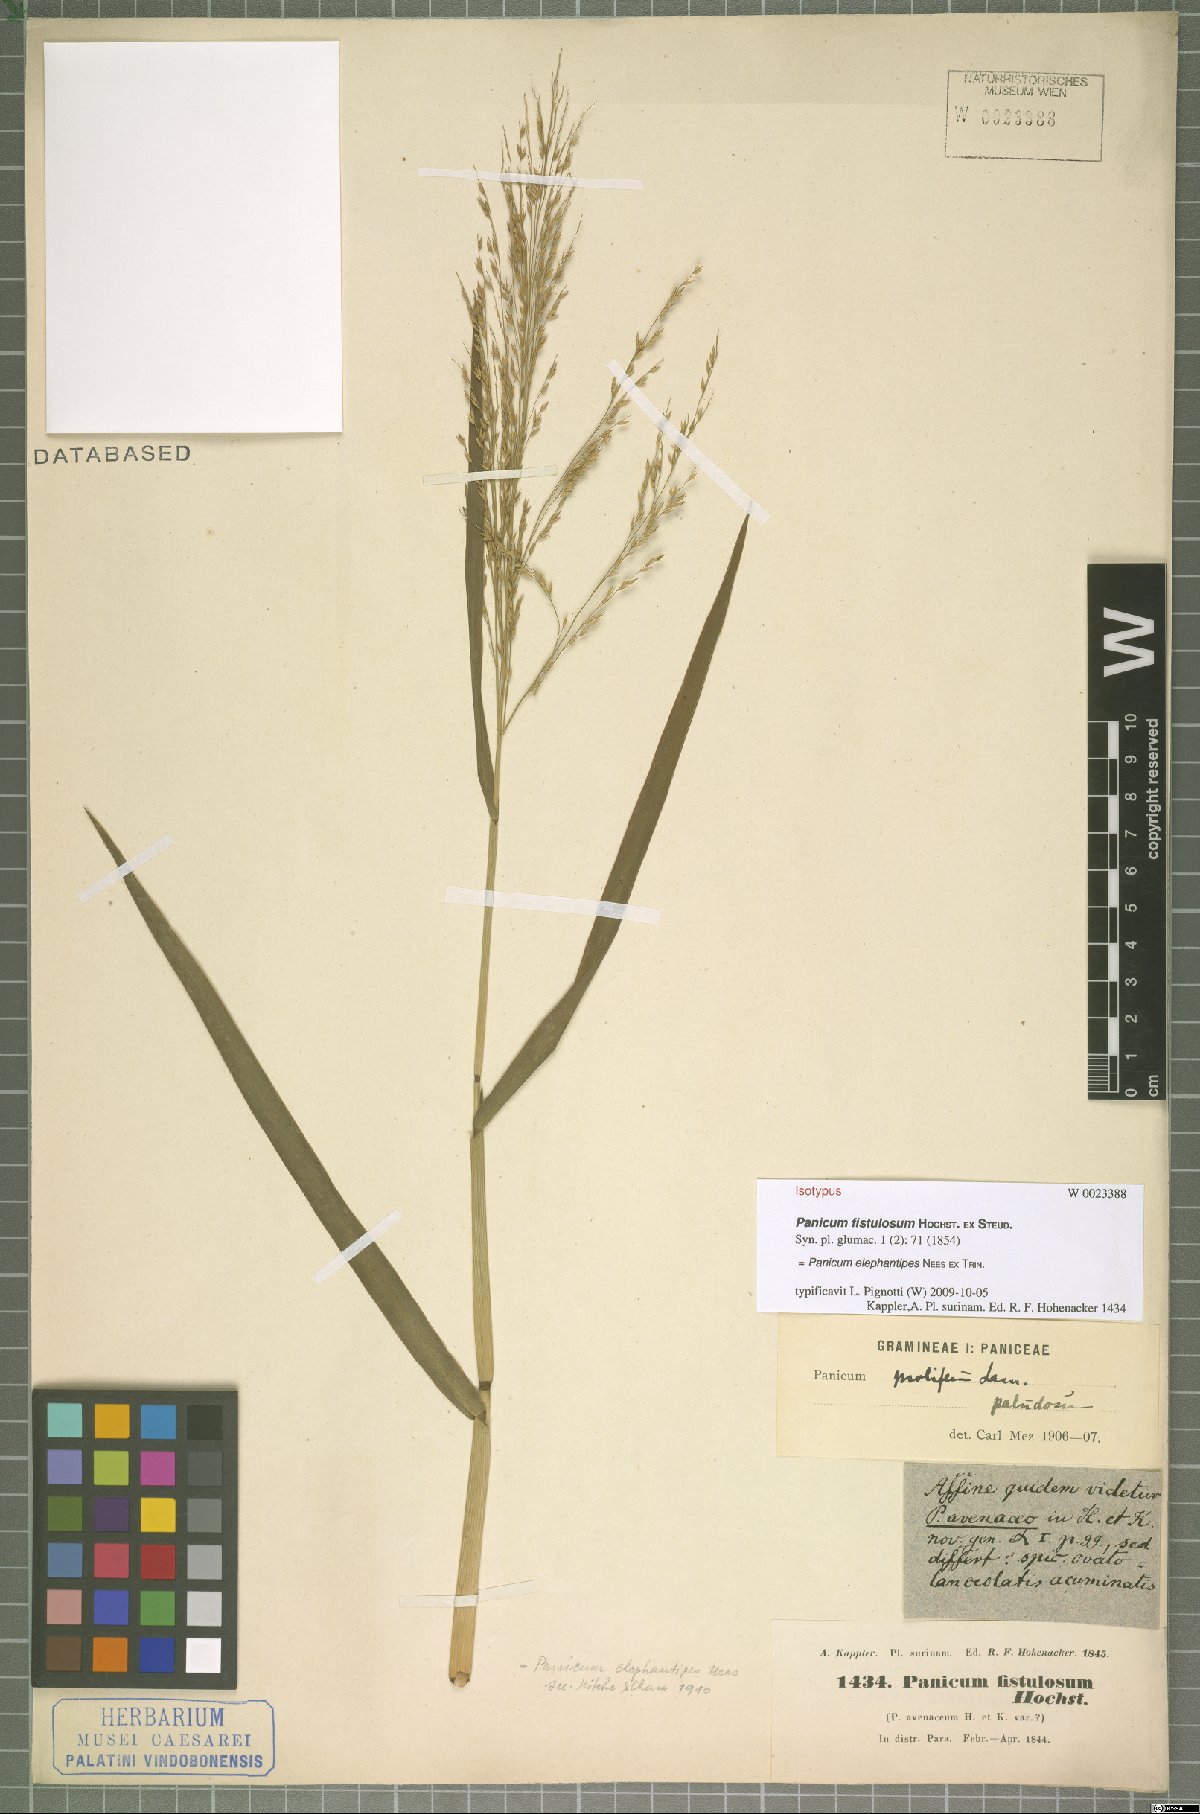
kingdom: Plantae
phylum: Tracheophyta
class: Liliopsida
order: Poales
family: Poaceae
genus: Louisiella
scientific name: Louisiella elephantipes
